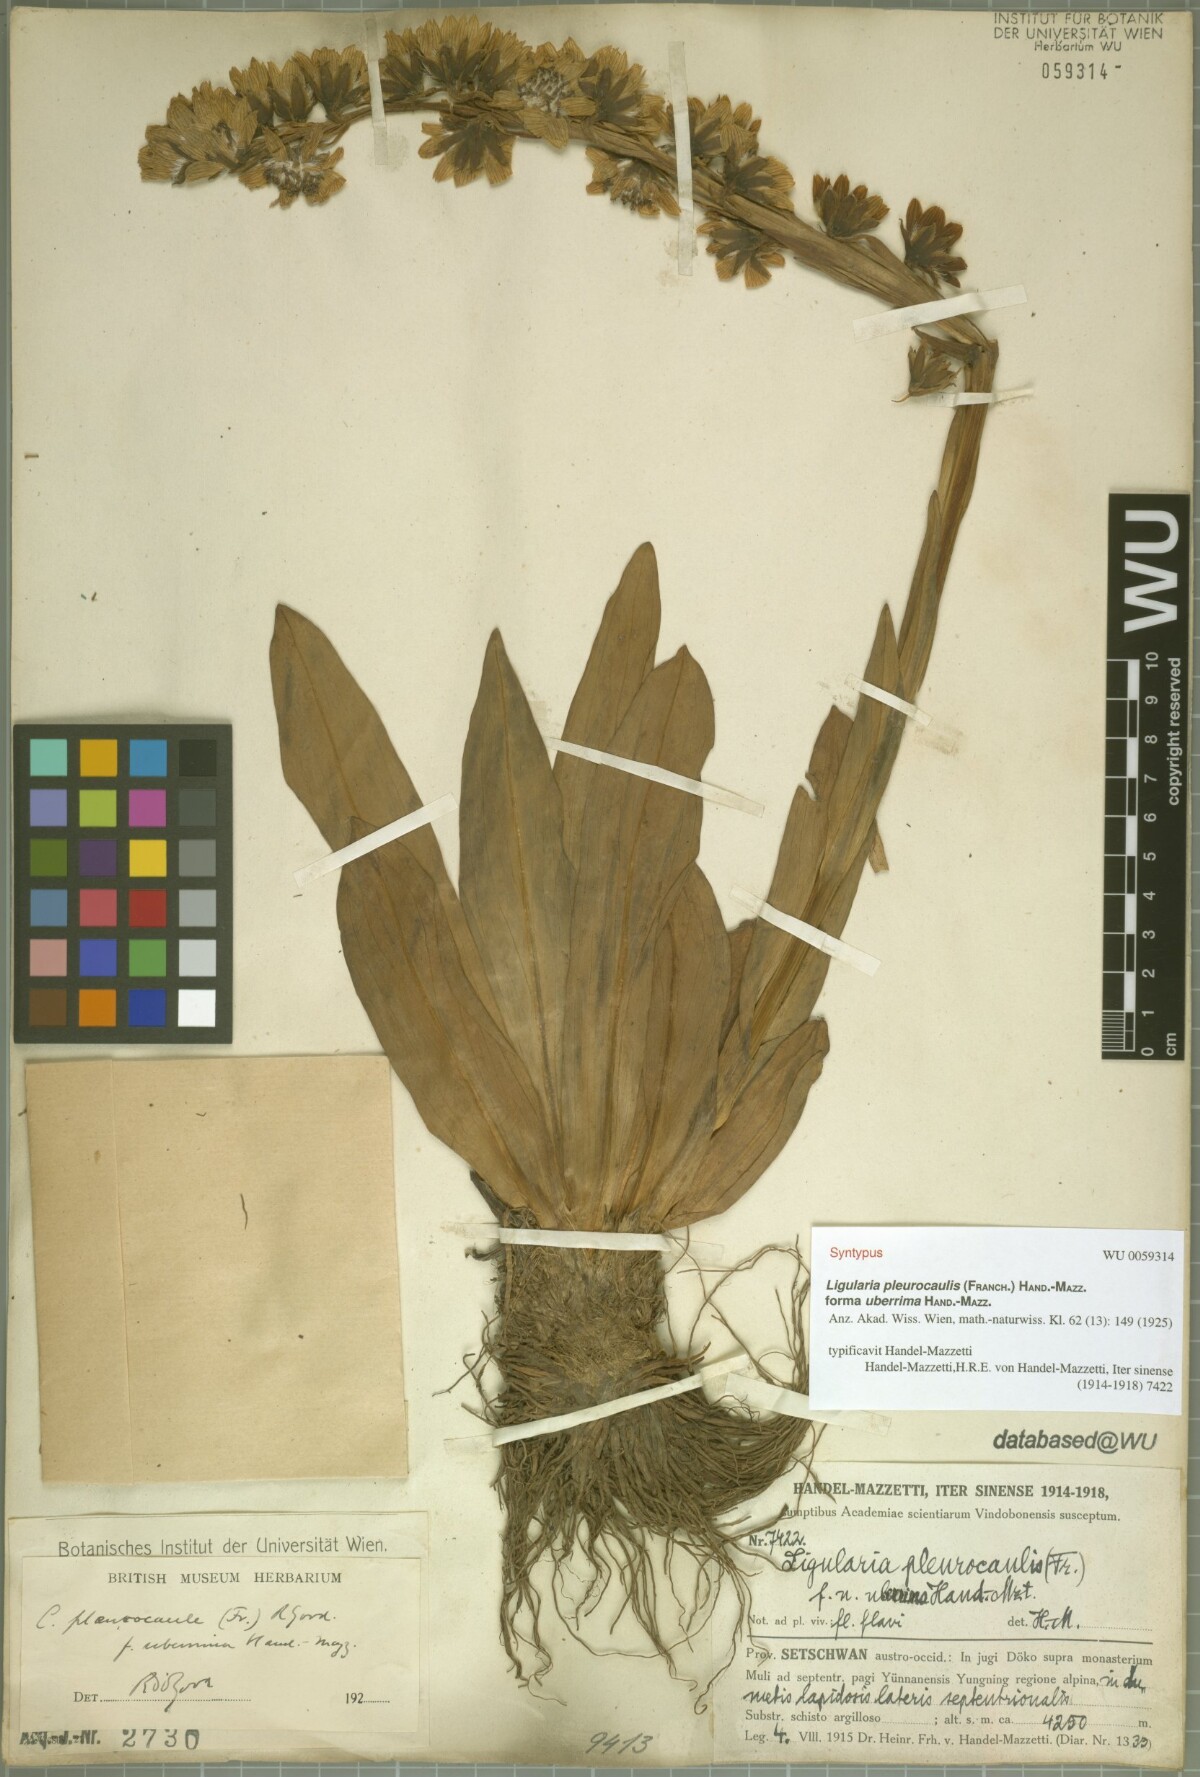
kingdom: Plantae
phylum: Tracheophyta
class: Magnoliopsida
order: Asterales
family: Asteraceae
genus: Ligularia
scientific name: Ligularia pleurocaulis
